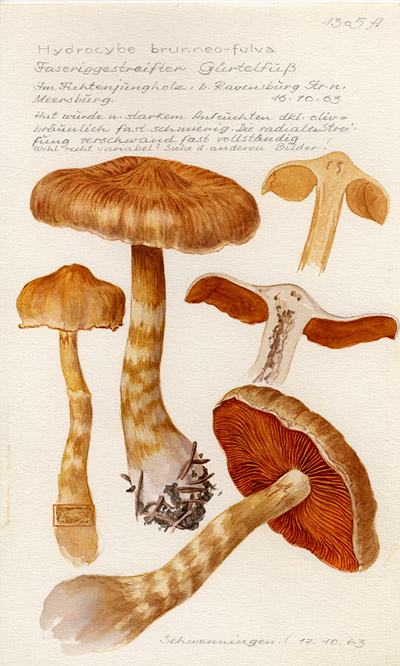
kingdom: Fungi
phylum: Basidiomycota
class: Agaricomycetes
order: Agaricales
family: Cortinariaceae
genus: Cortinarius
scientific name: Cortinarius brunneofulvus
